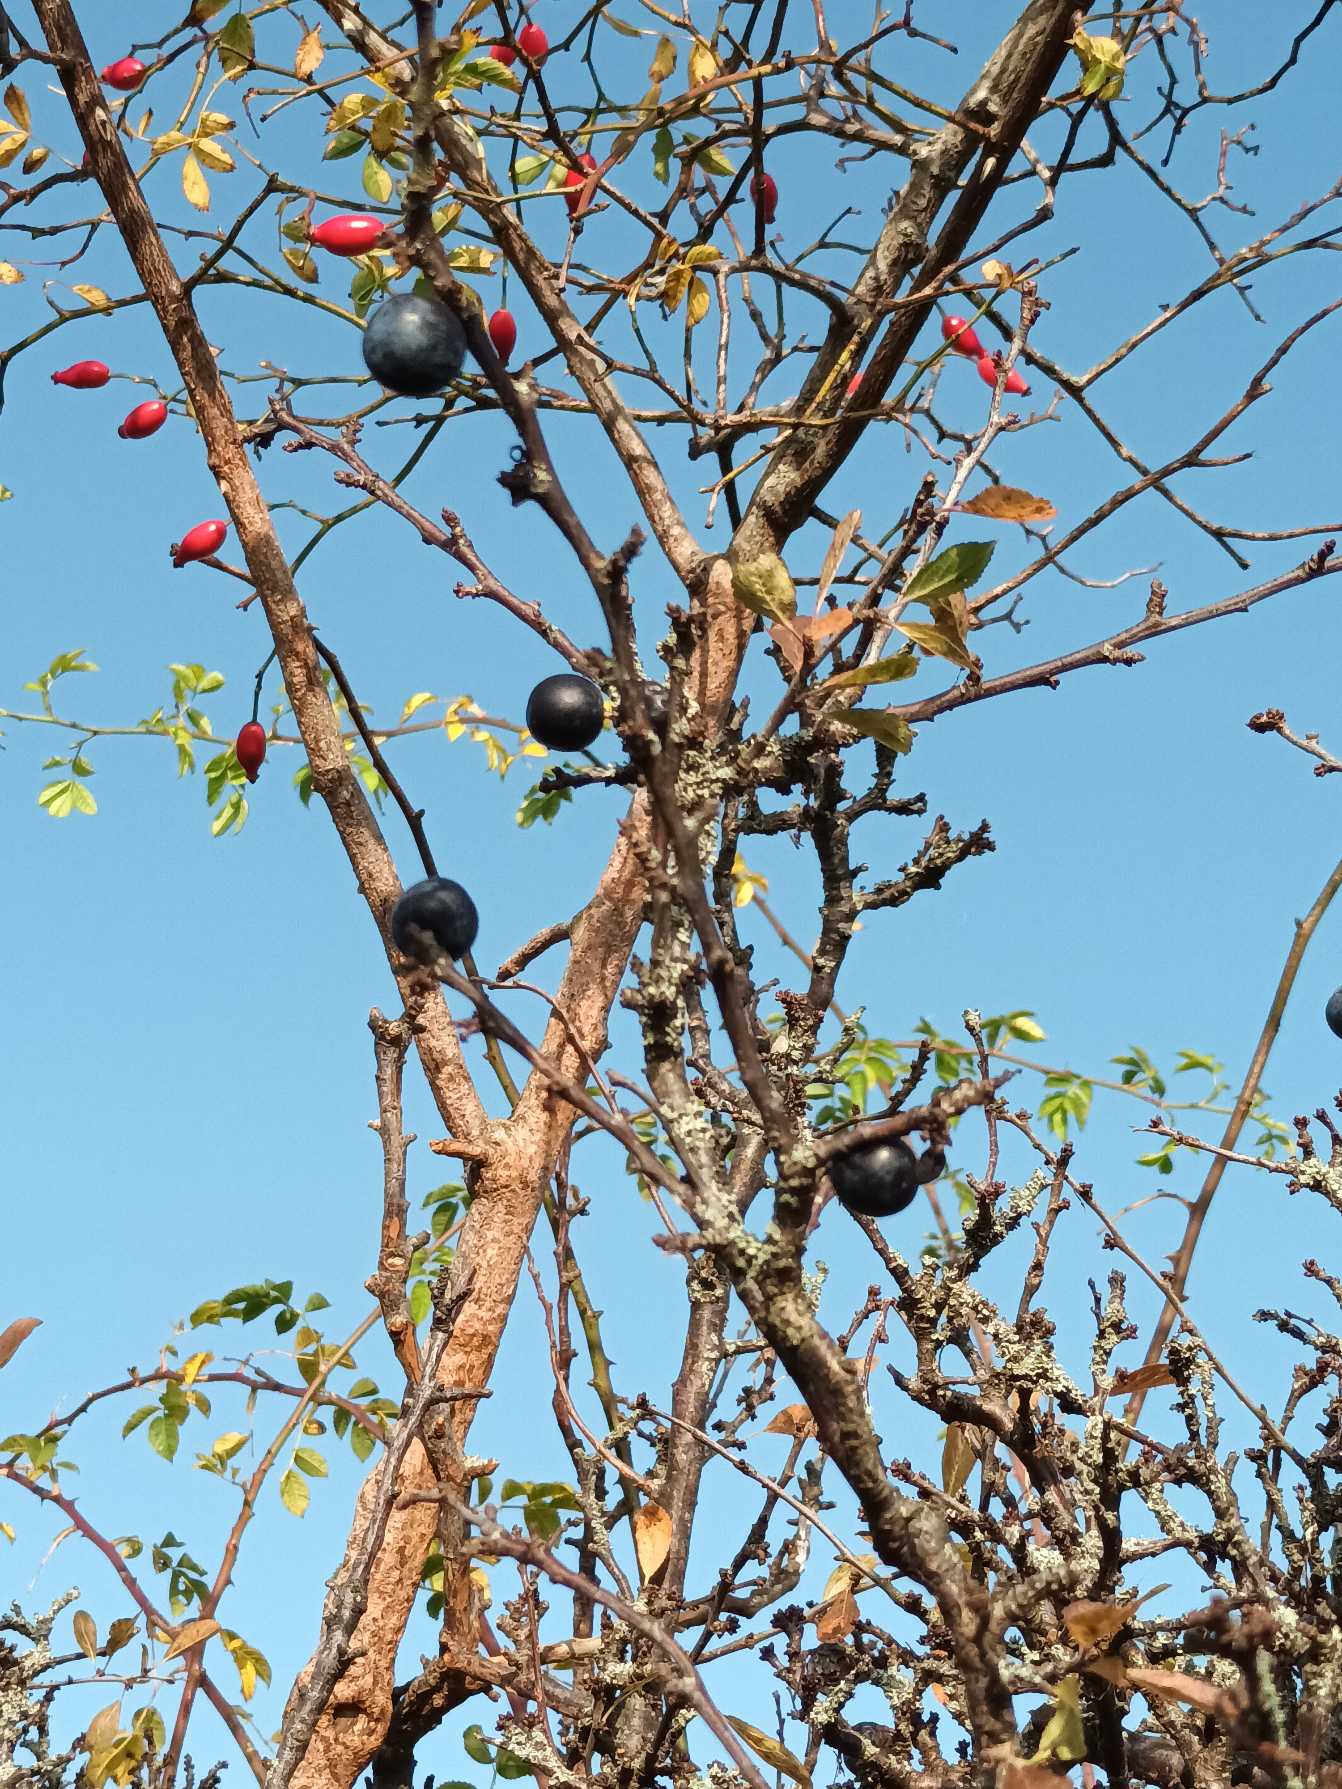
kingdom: Plantae
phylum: Tracheophyta
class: Magnoliopsida
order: Rosales
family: Rosaceae
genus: Prunus
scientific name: Prunus spinosa
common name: Slåen
